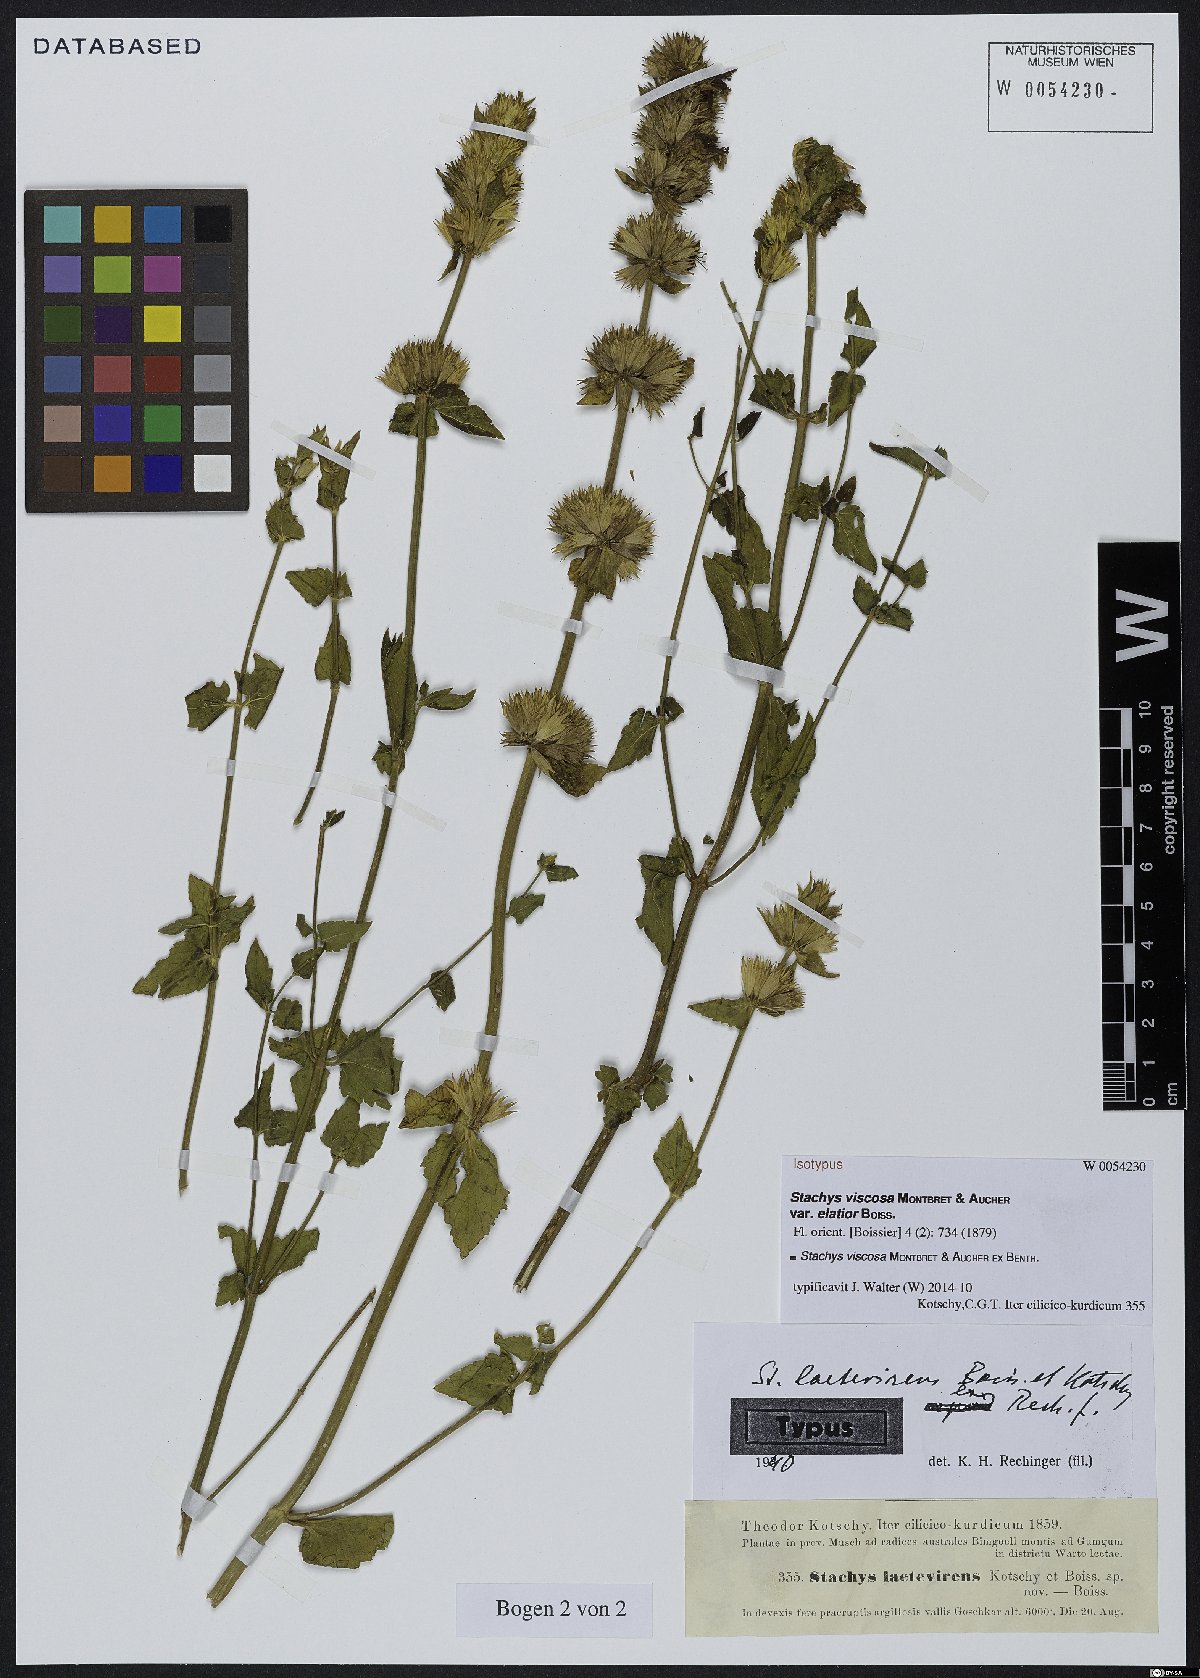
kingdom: Plantae
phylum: Tracheophyta
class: Magnoliopsida
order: Lamiales
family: Lamiaceae
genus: Stachys
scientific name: Stachys viscosa
